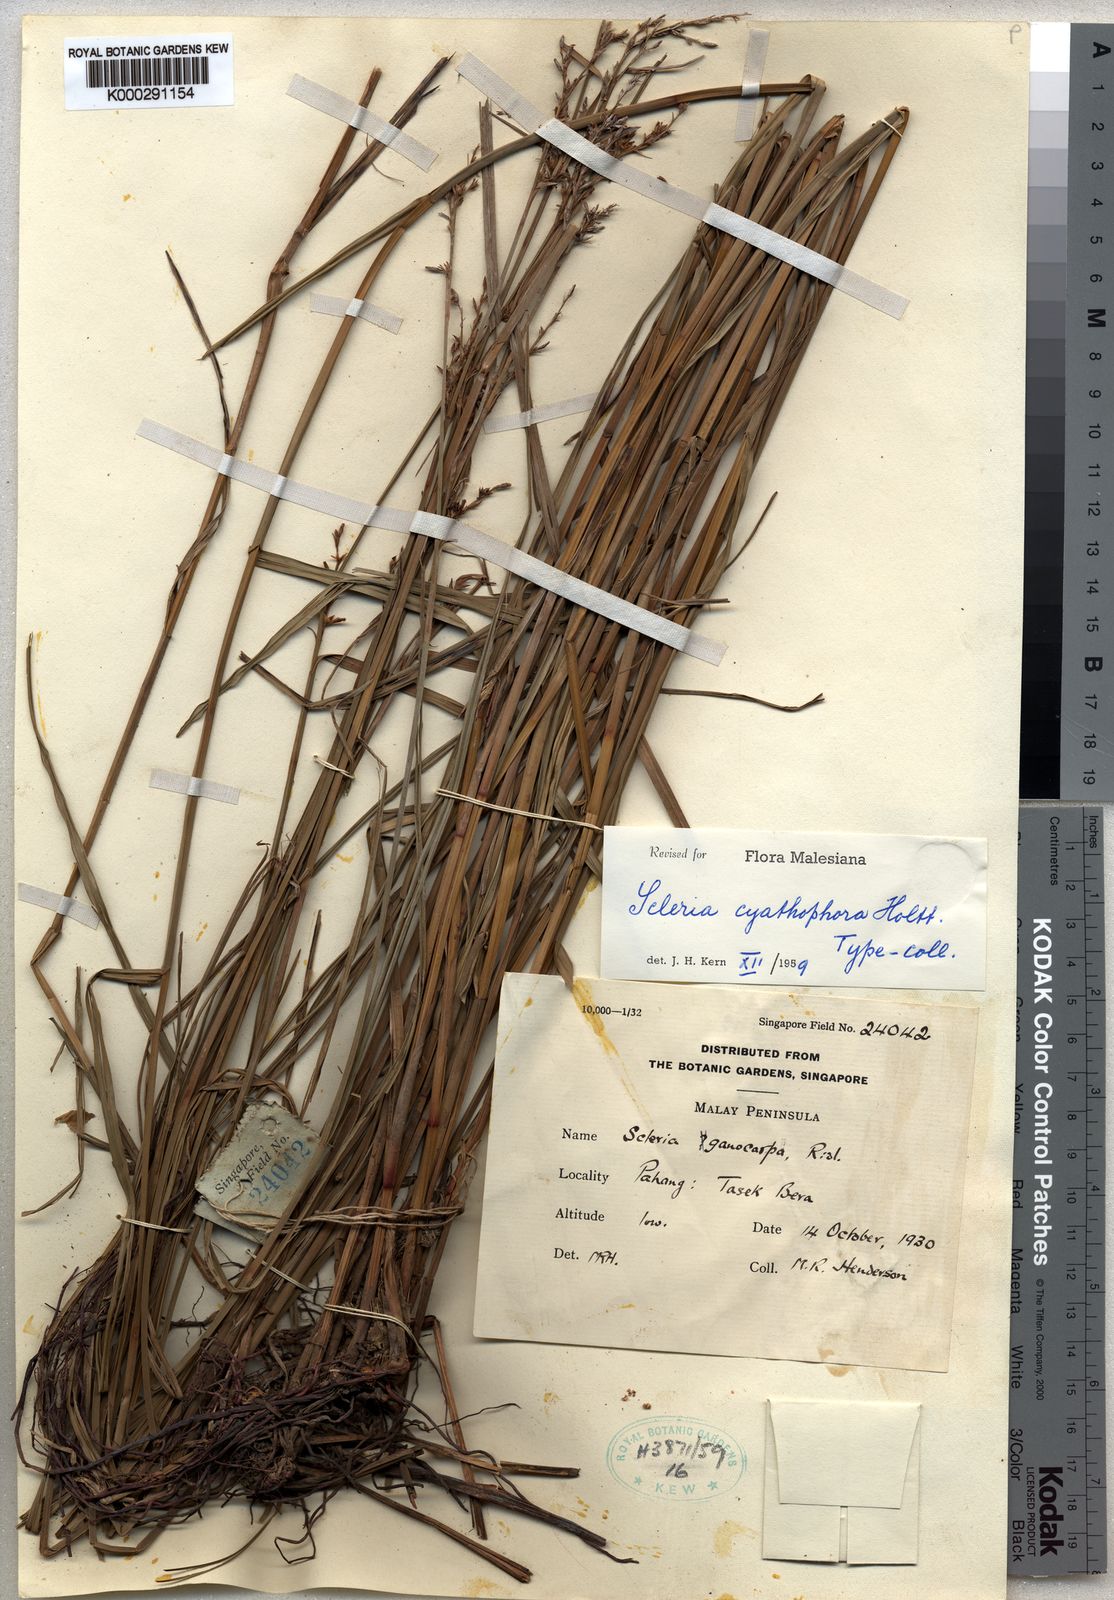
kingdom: Plantae
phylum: Tracheophyta
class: Liliopsida
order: Poales
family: Cyperaceae
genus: Scleria
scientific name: Scleria cyathophora
